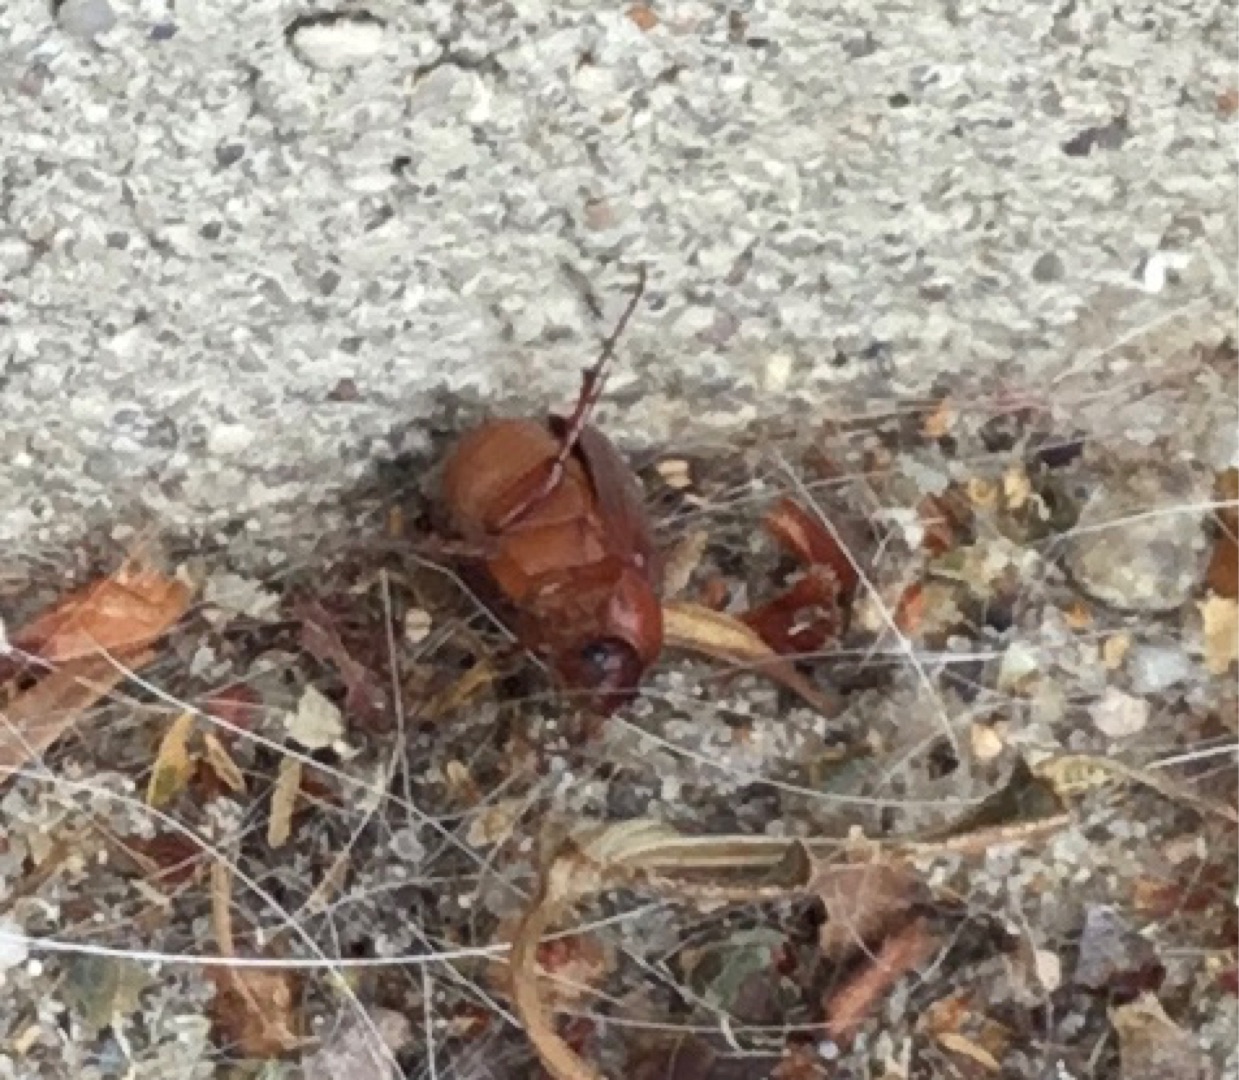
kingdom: Animalia
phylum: Arthropoda
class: Insecta
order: Coleoptera
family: Scarabaeidae
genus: Serica
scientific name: Serica brunnea
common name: Natoldenborre
